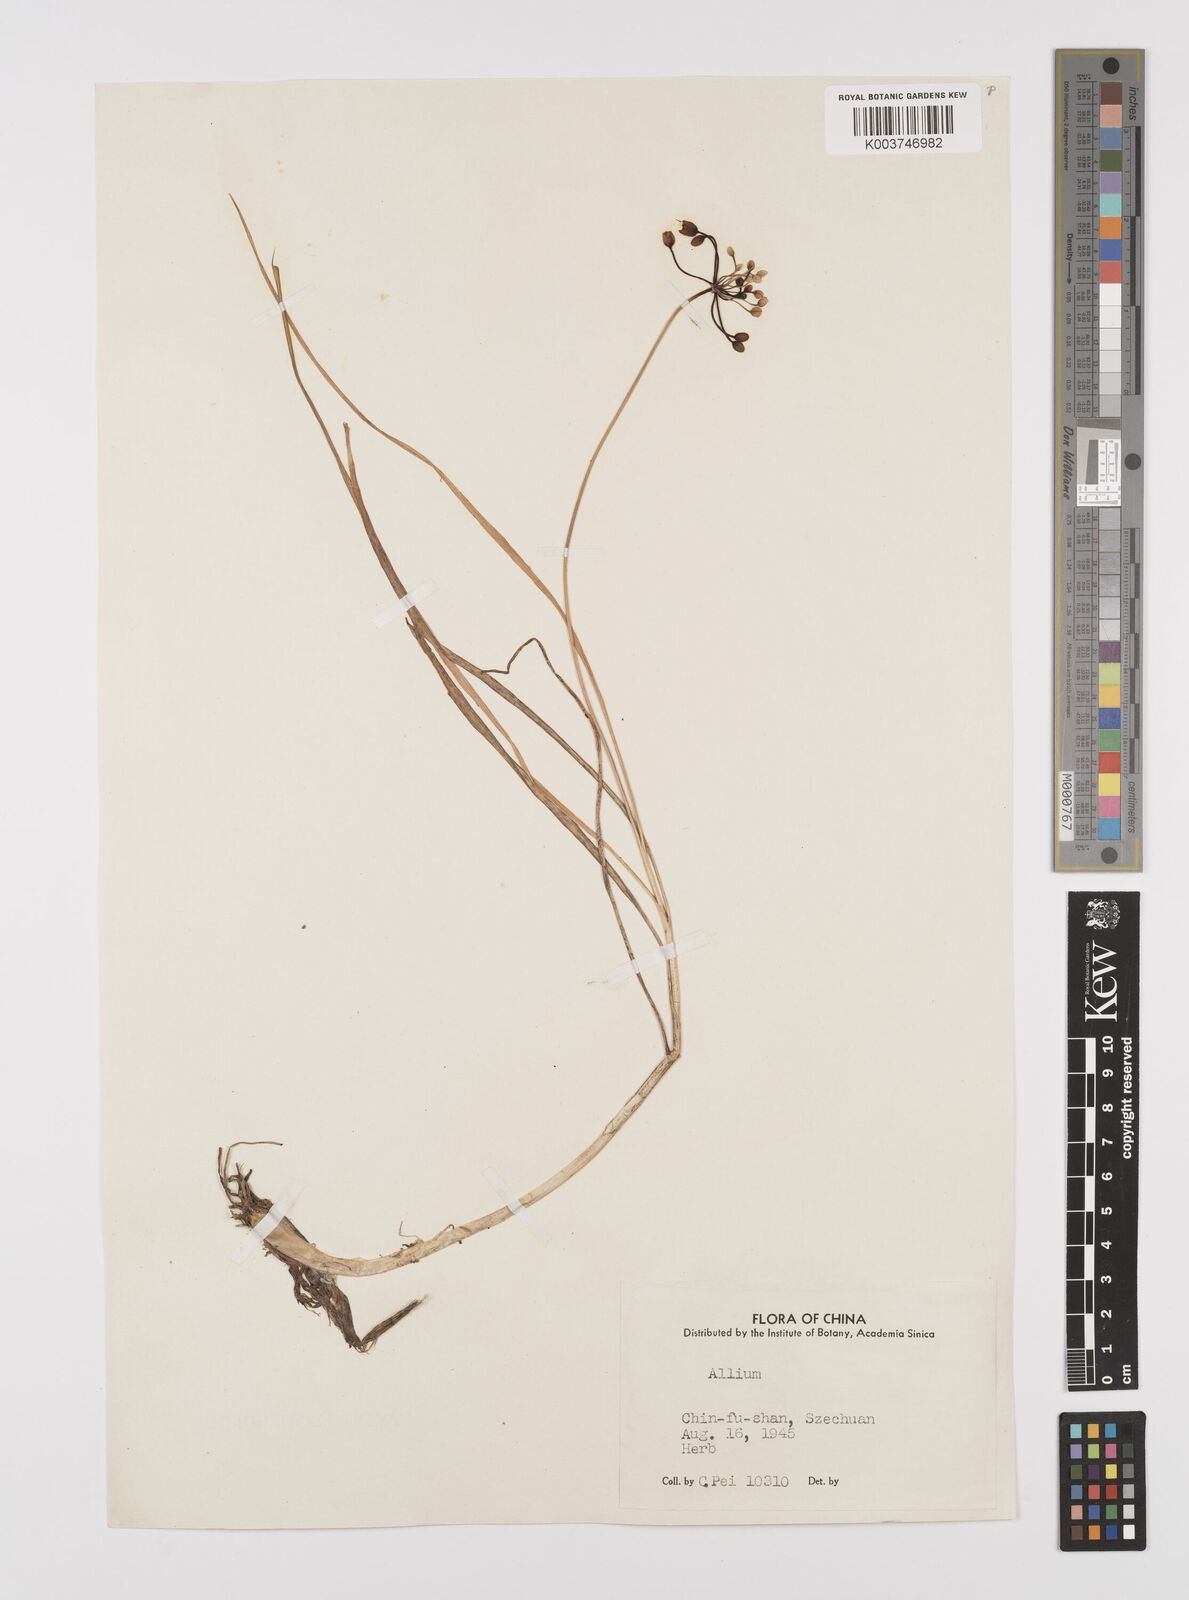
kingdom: Plantae
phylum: Tracheophyta
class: Liliopsida
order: Asparagales
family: Amaryllidaceae
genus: Allium
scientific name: Allium
